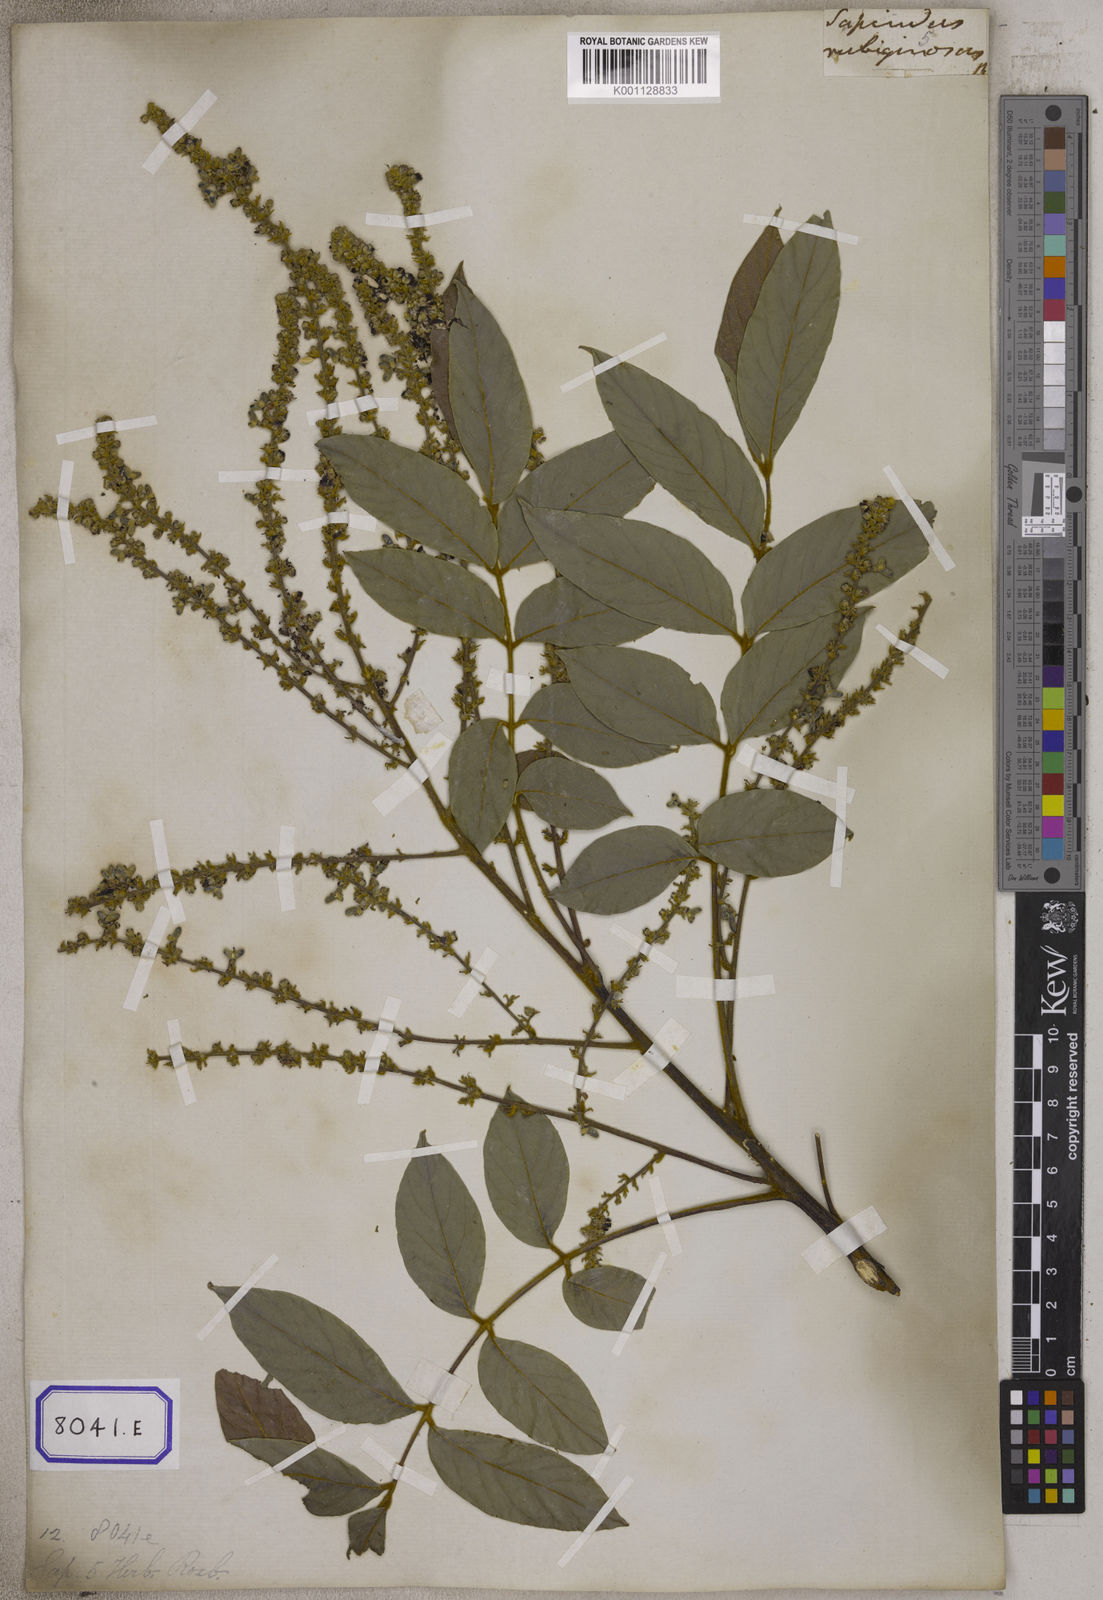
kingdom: Plantae
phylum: Tracheophyta
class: Magnoliopsida
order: Sapindales
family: Sapindaceae
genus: Lepisanthes
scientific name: Lepisanthes rubiginosa
